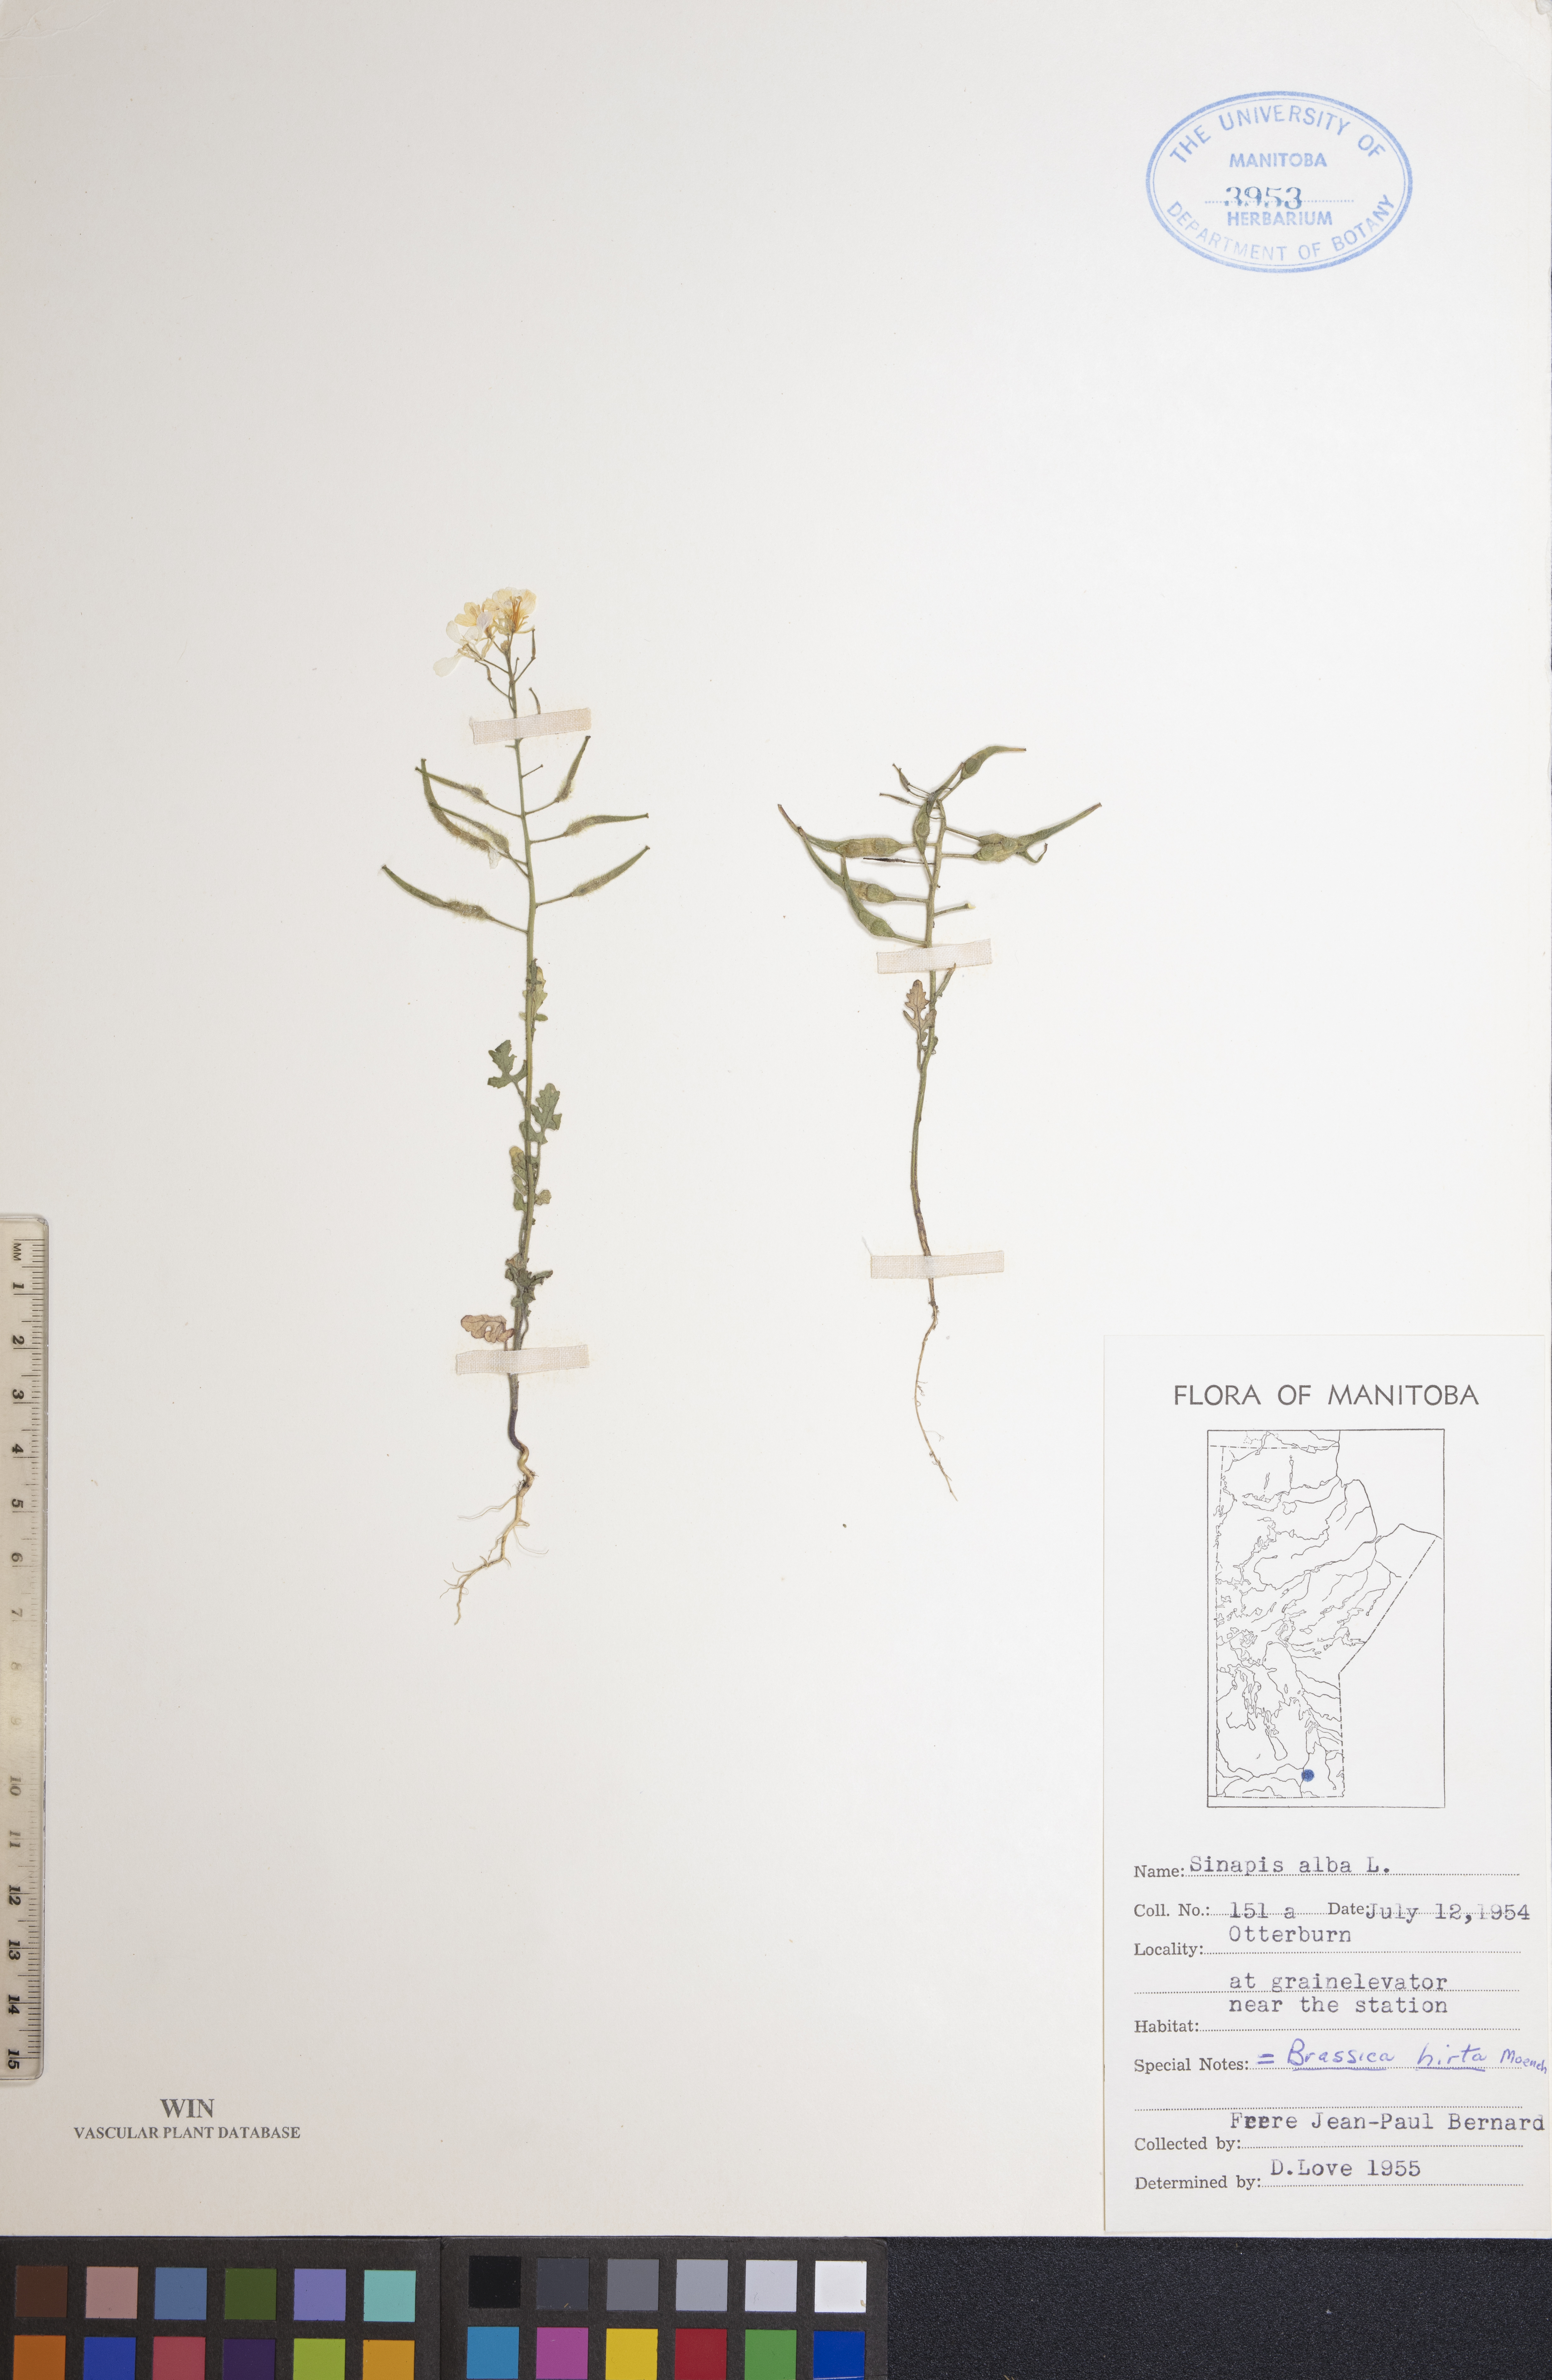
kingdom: Plantae
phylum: Tracheophyta
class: Magnoliopsida
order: Brassicales
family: Brassicaceae
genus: Sinapis
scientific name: Sinapis alba
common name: White mustard
